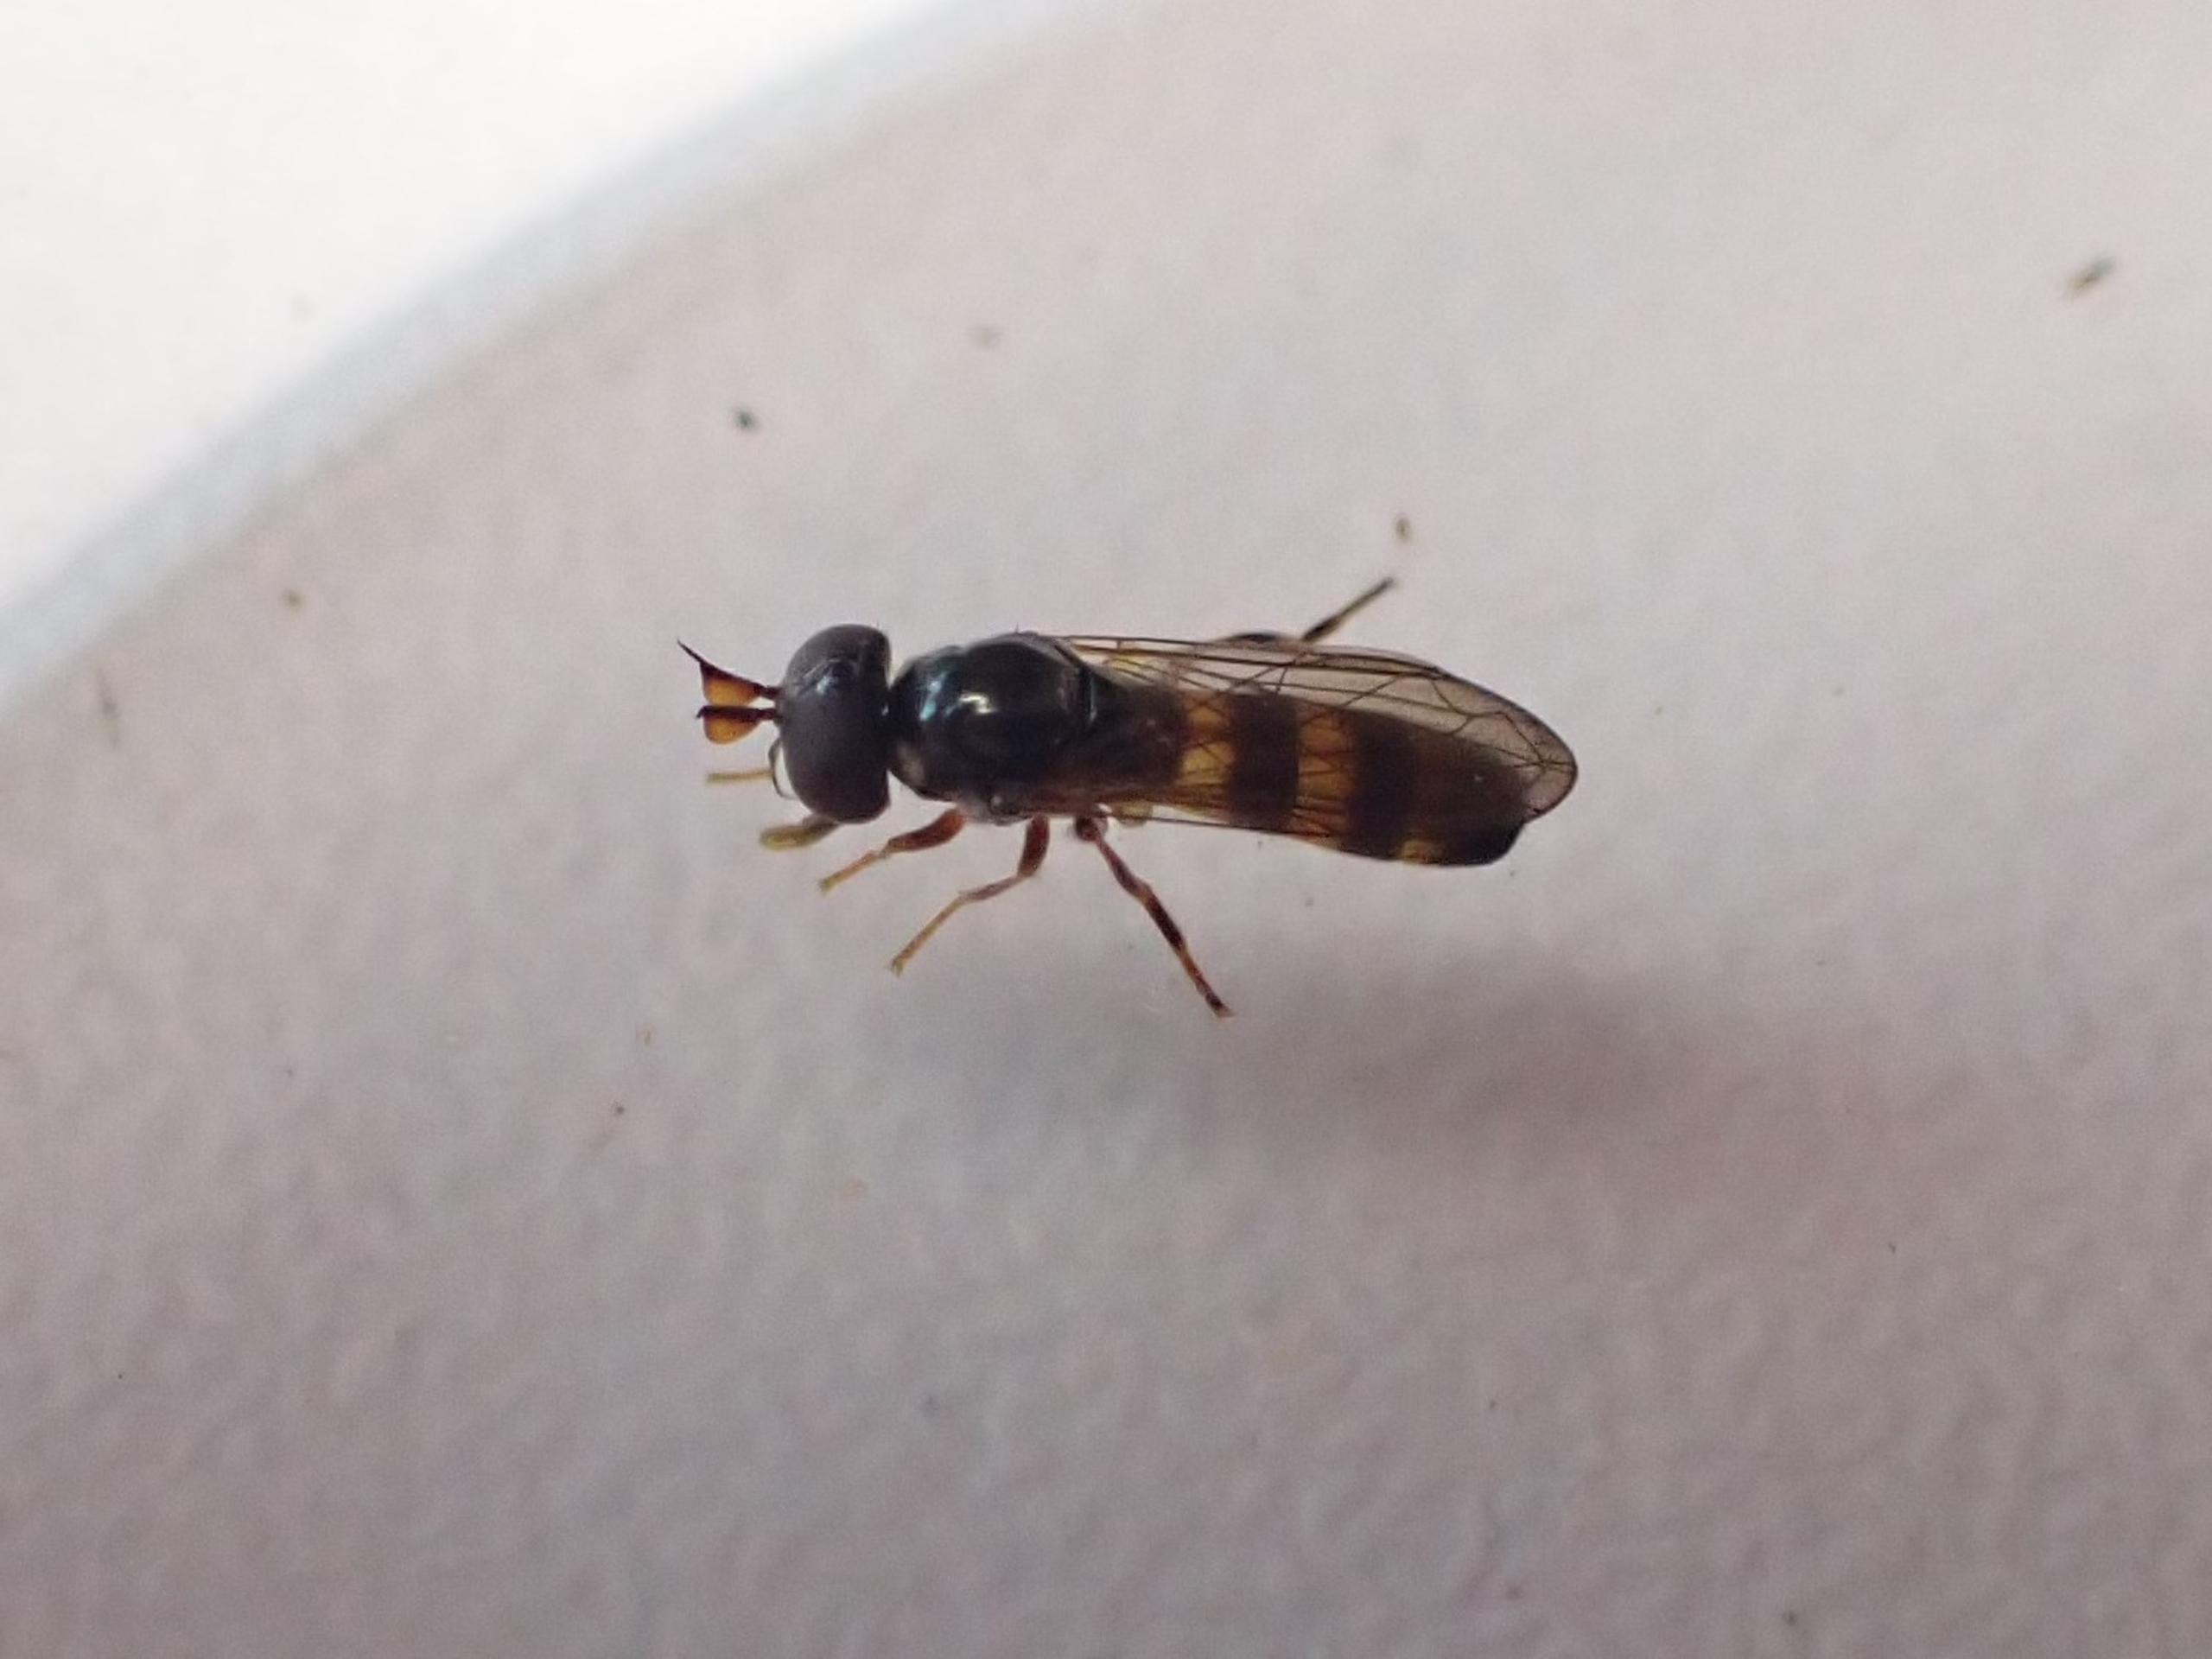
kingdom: Animalia
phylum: Arthropoda
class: Insecta
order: Diptera
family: Syrphidae
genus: Pelecocera
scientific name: Pelecocera tricincta
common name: Bredhorn-svirreflue
